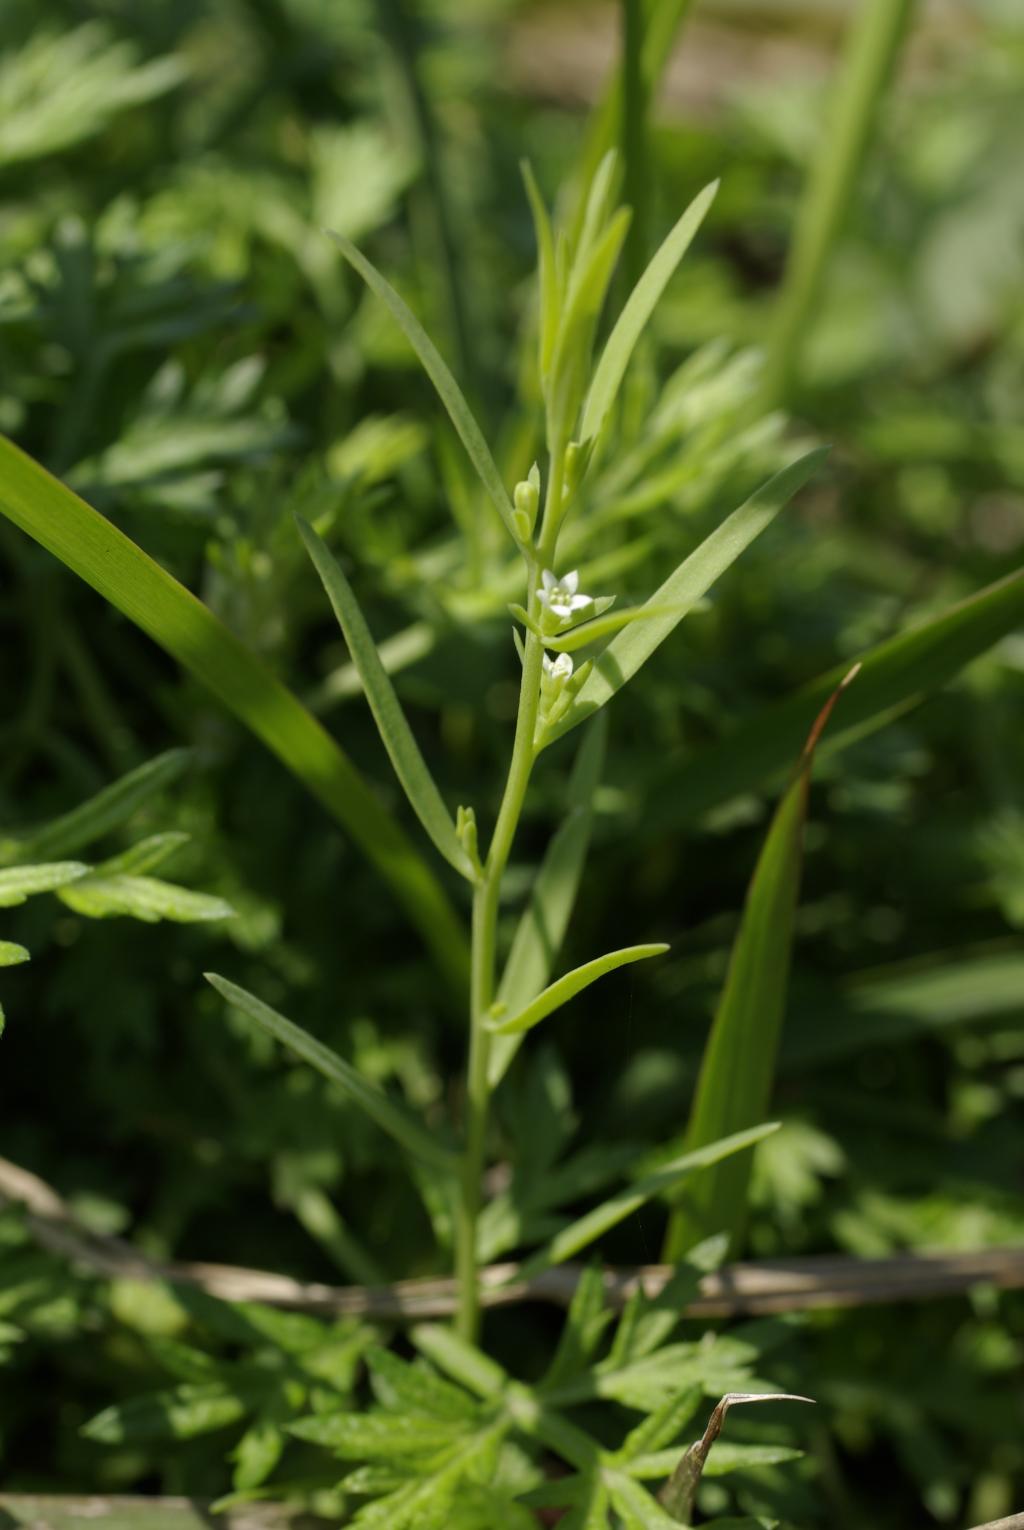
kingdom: Plantae
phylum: Tracheophyta
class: Magnoliopsida
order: Santalales
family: Thesiaceae
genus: Thesium
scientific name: Thesium chinense
